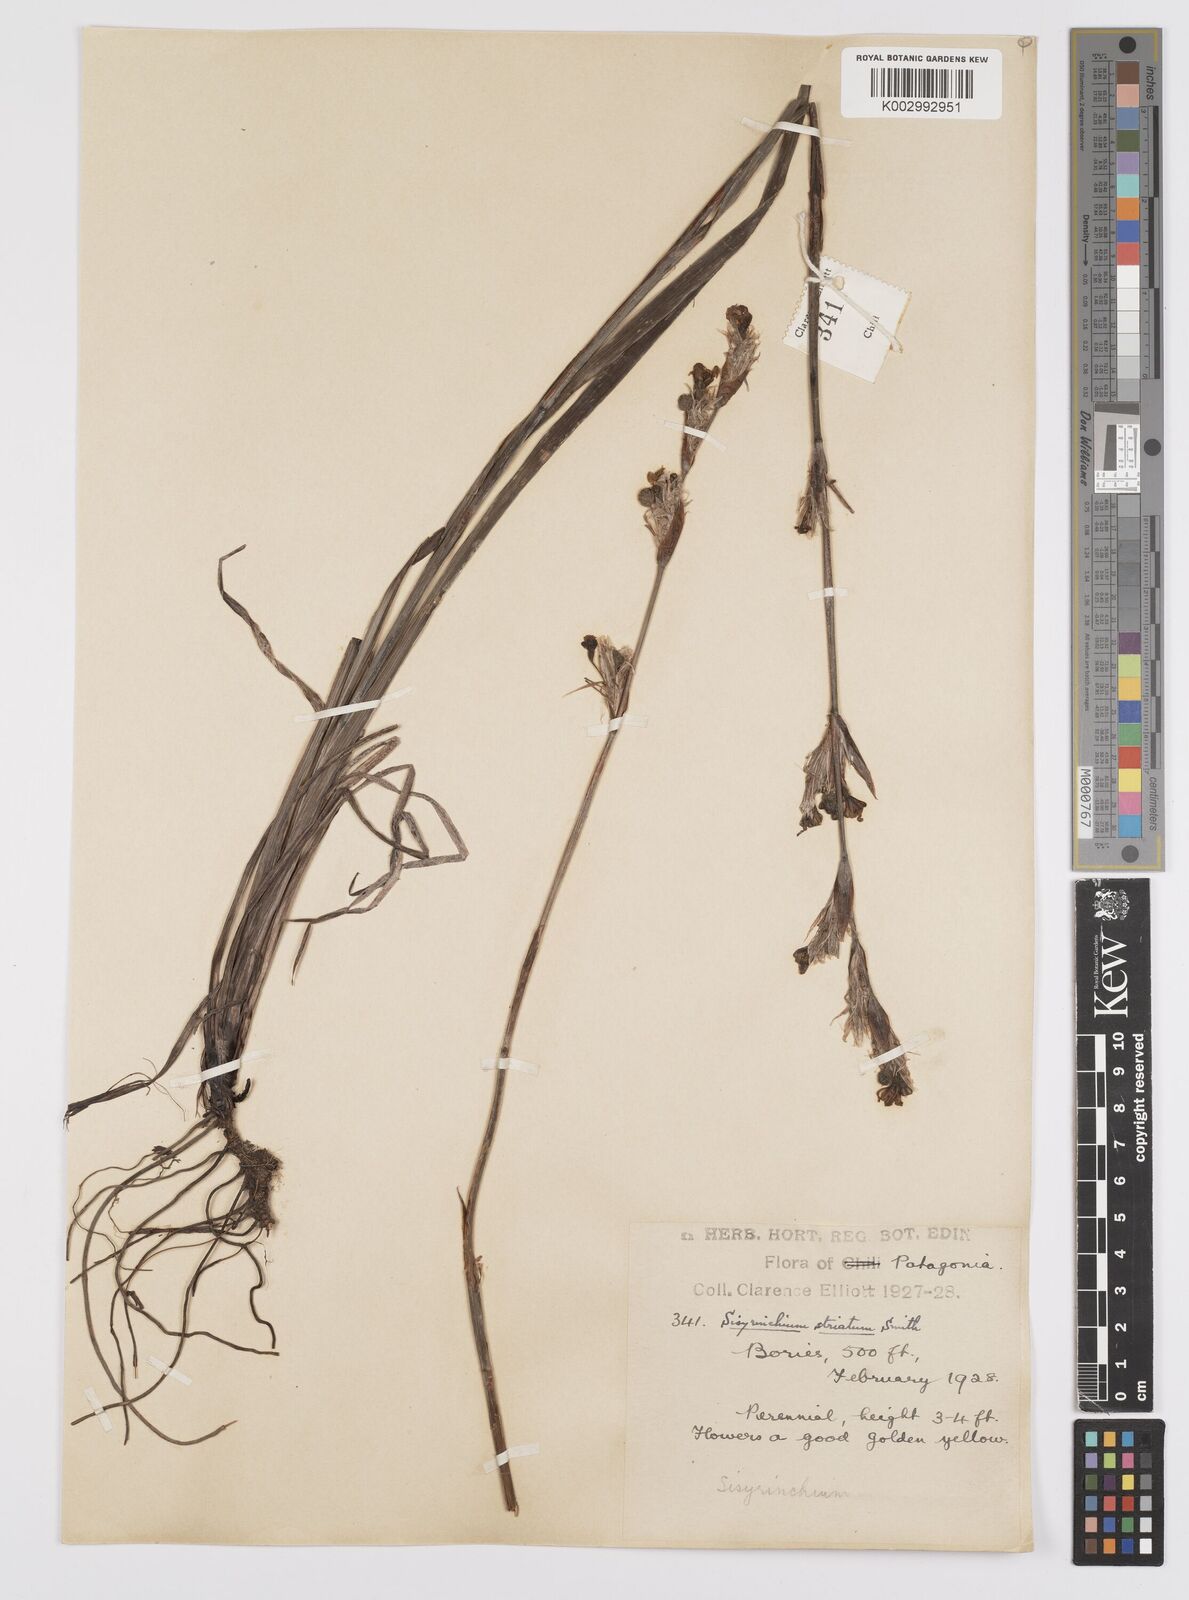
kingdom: Plantae
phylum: Tracheophyta
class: Liliopsida
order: Asparagales
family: Iridaceae
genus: Sisyrinchium
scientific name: Sisyrinchium striatum
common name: Pale yellow-eyed-grass
